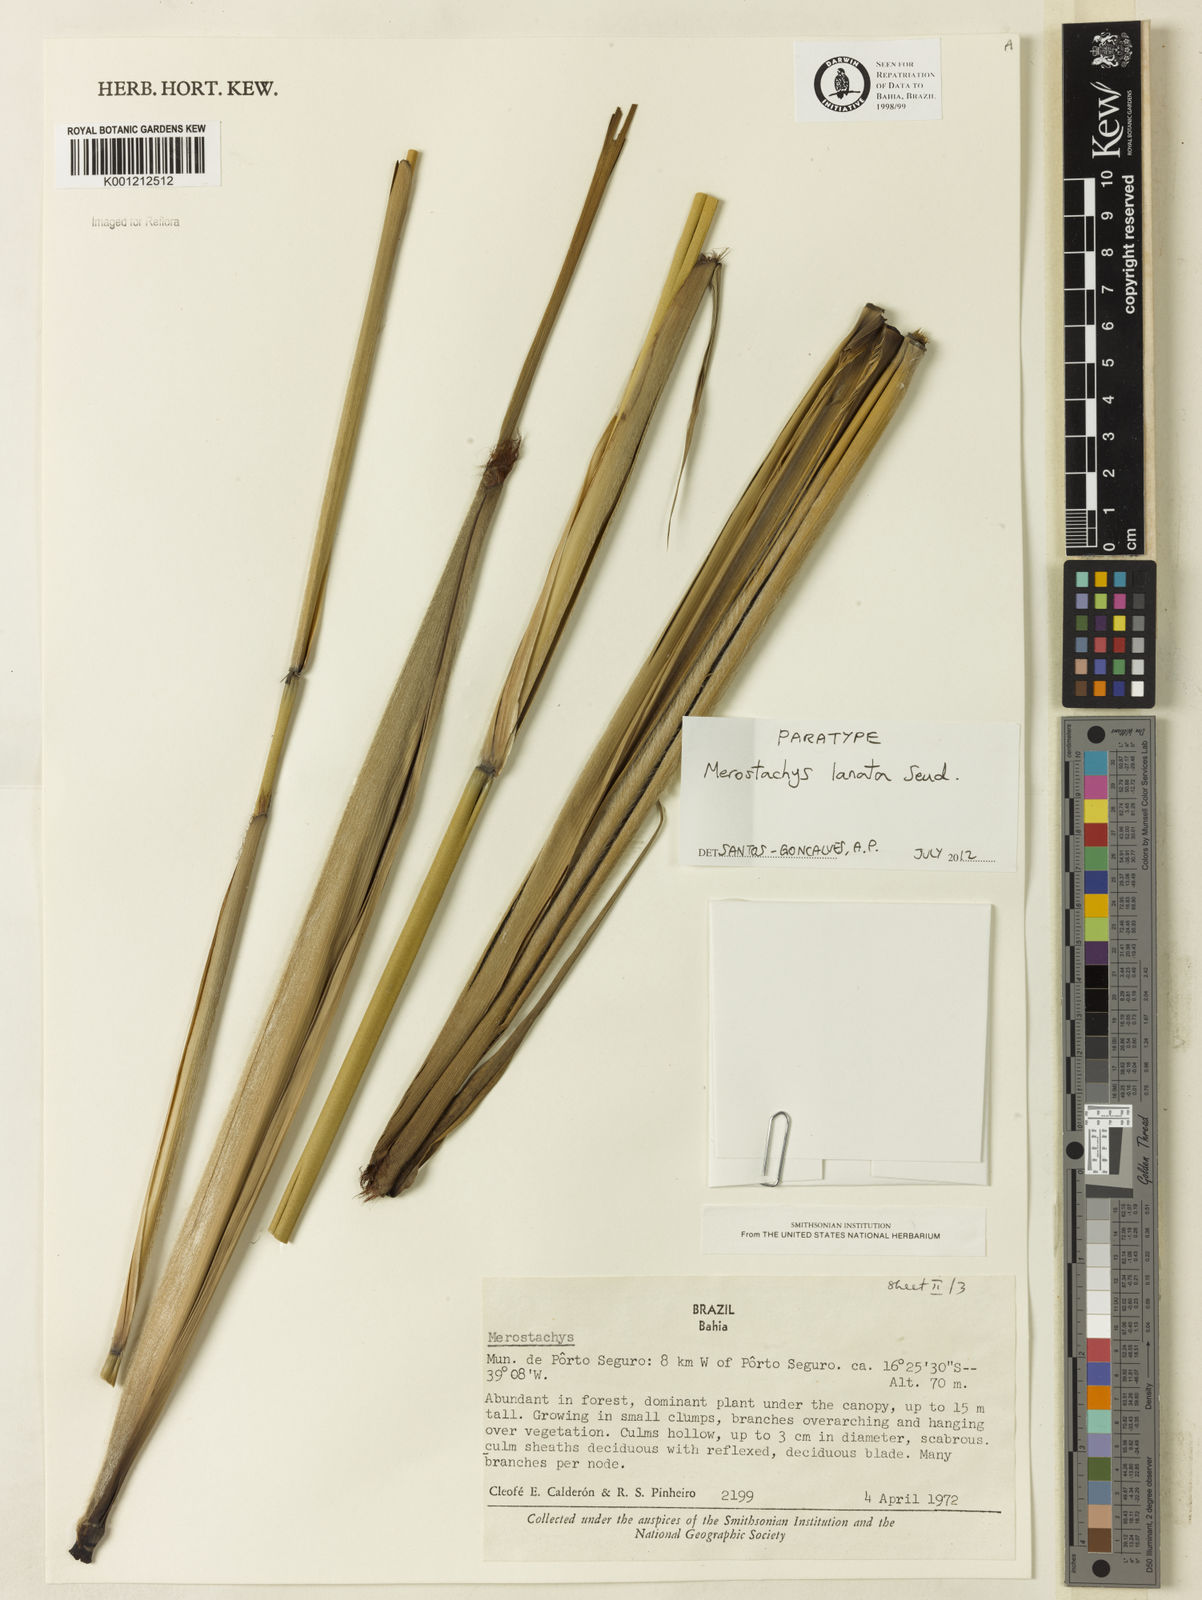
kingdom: Plantae
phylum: Tracheophyta
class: Liliopsida
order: Poales
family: Poaceae
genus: Merostachys
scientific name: Merostachys lanata
